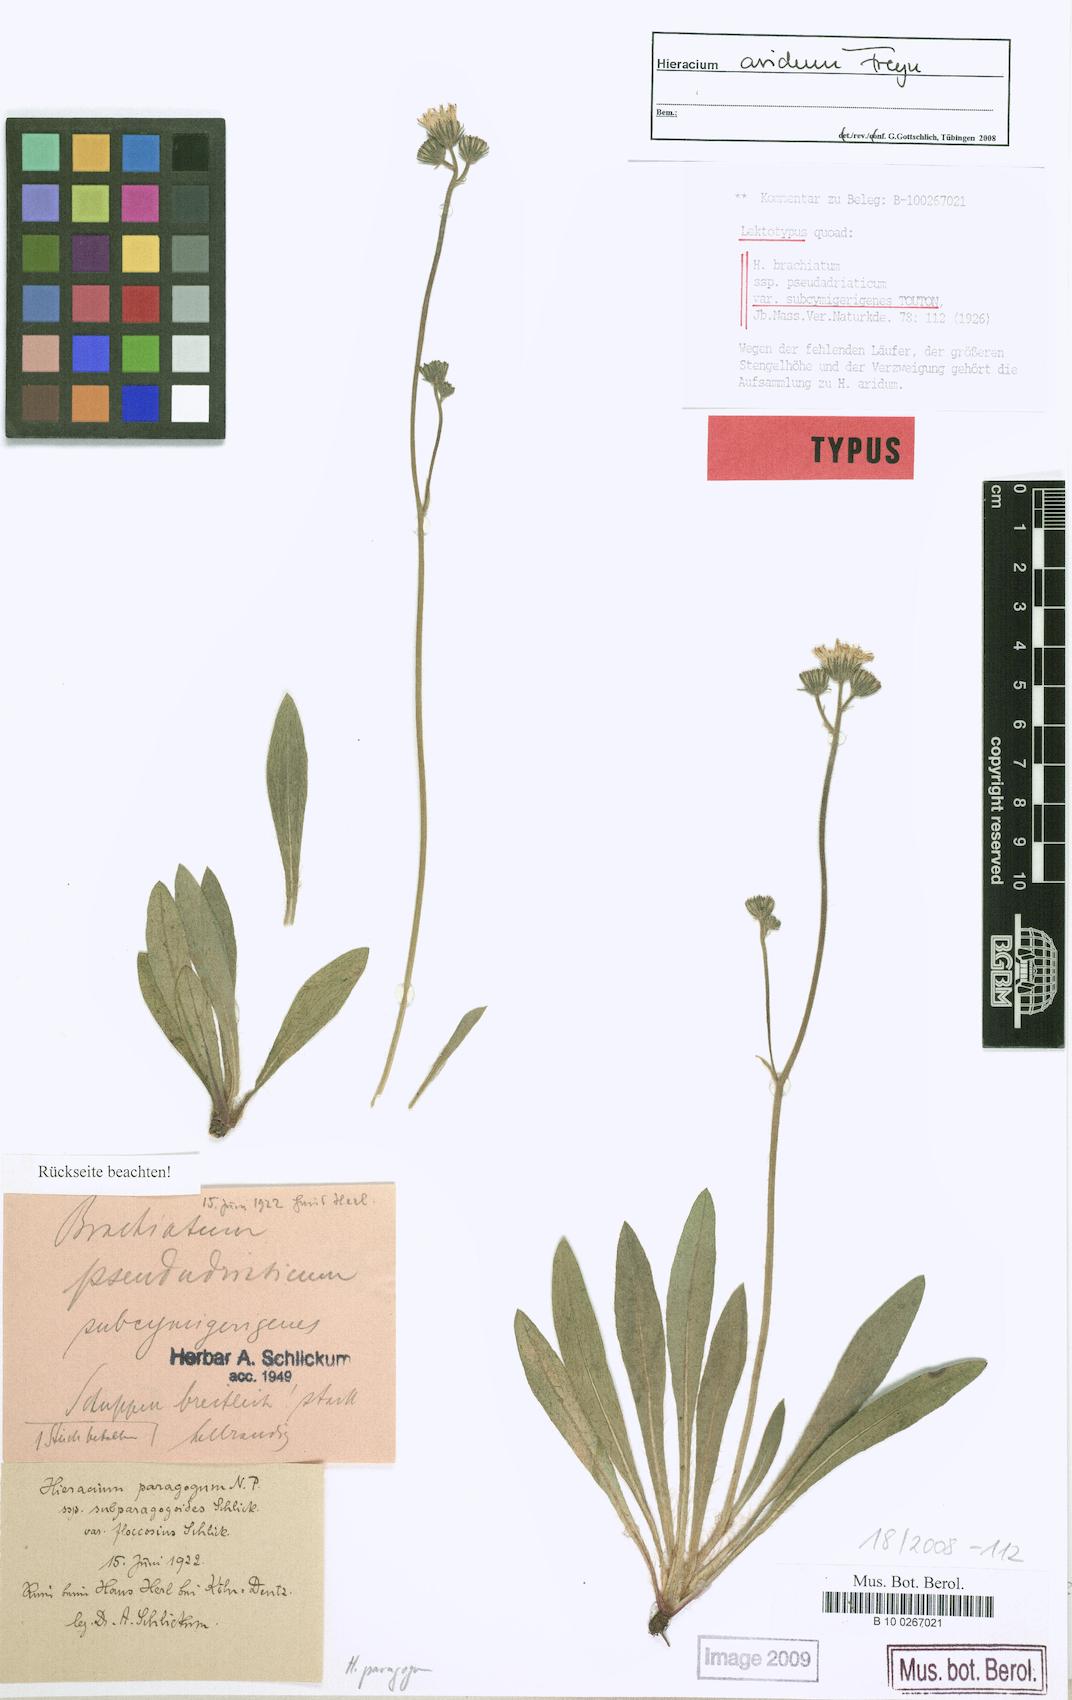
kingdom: Plantae
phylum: Tracheophyta
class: Magnoliopsida
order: Asterales
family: Asteraceae
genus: Pilosella
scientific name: Pilosella arida
